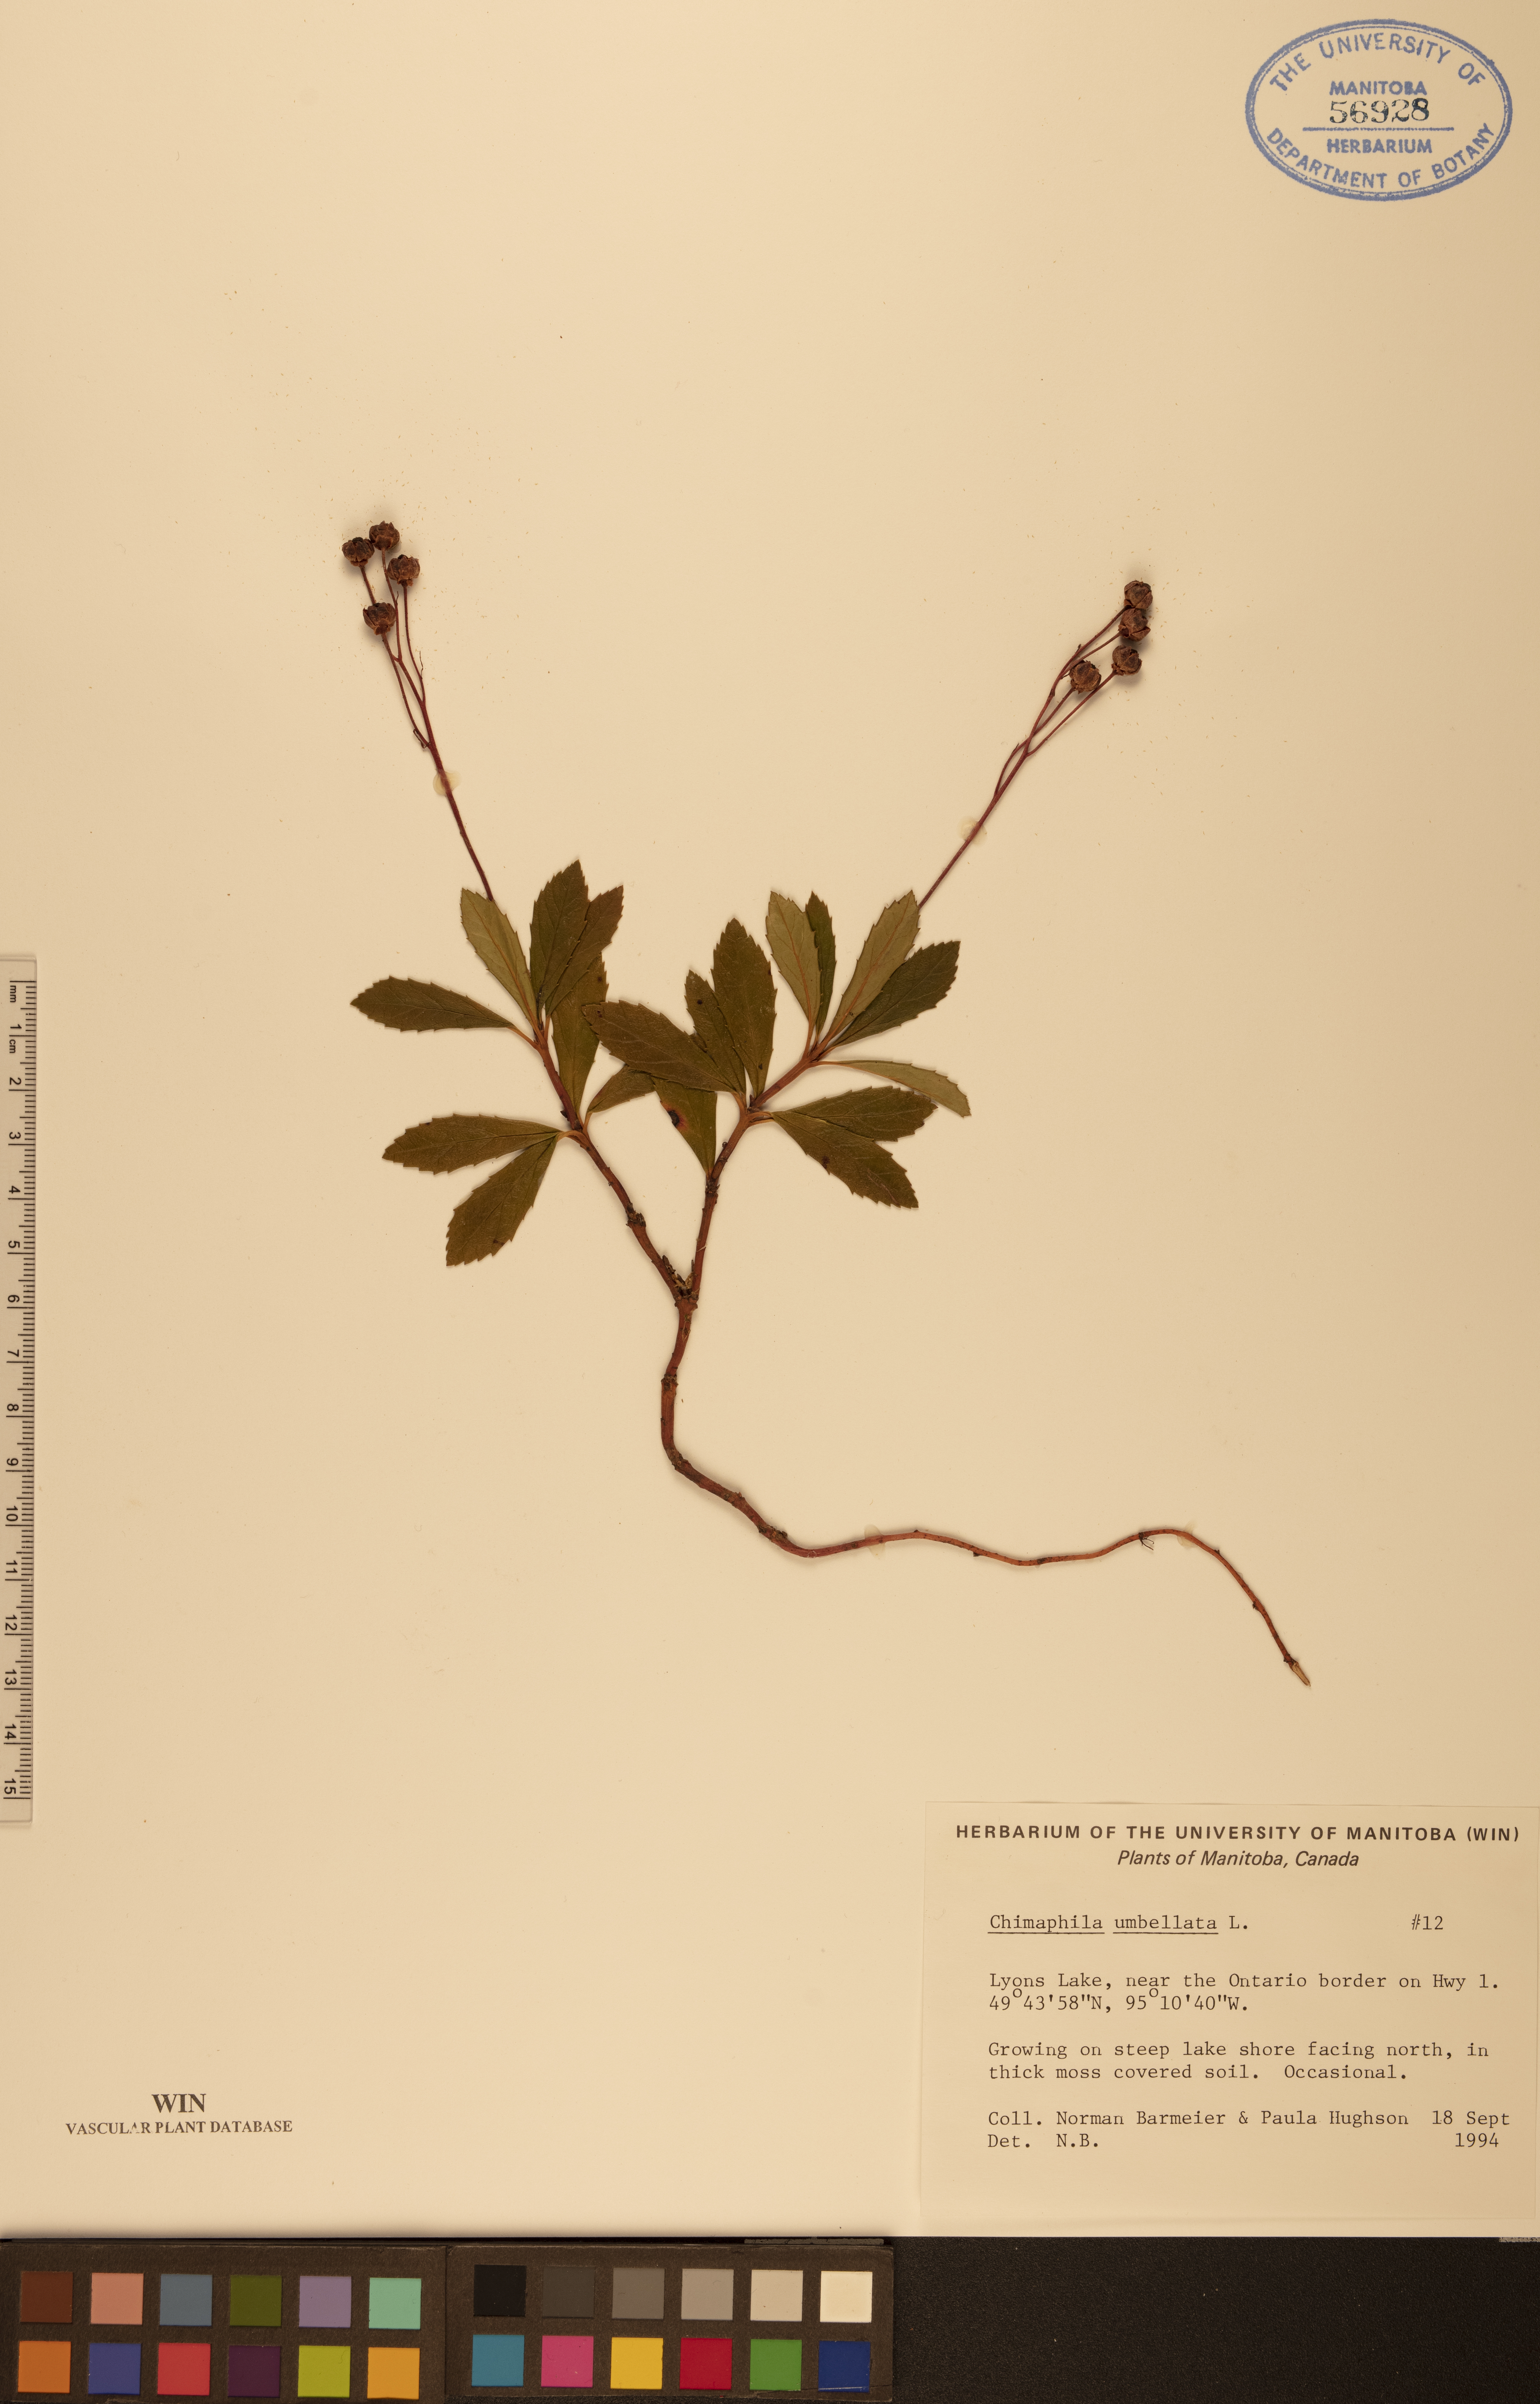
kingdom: Plantae
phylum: Tracheophyta
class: Magnoliopsida
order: Ericales
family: Ericaceae
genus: Chimaphila
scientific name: Chimaphila umbellata
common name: Pipsissewa
